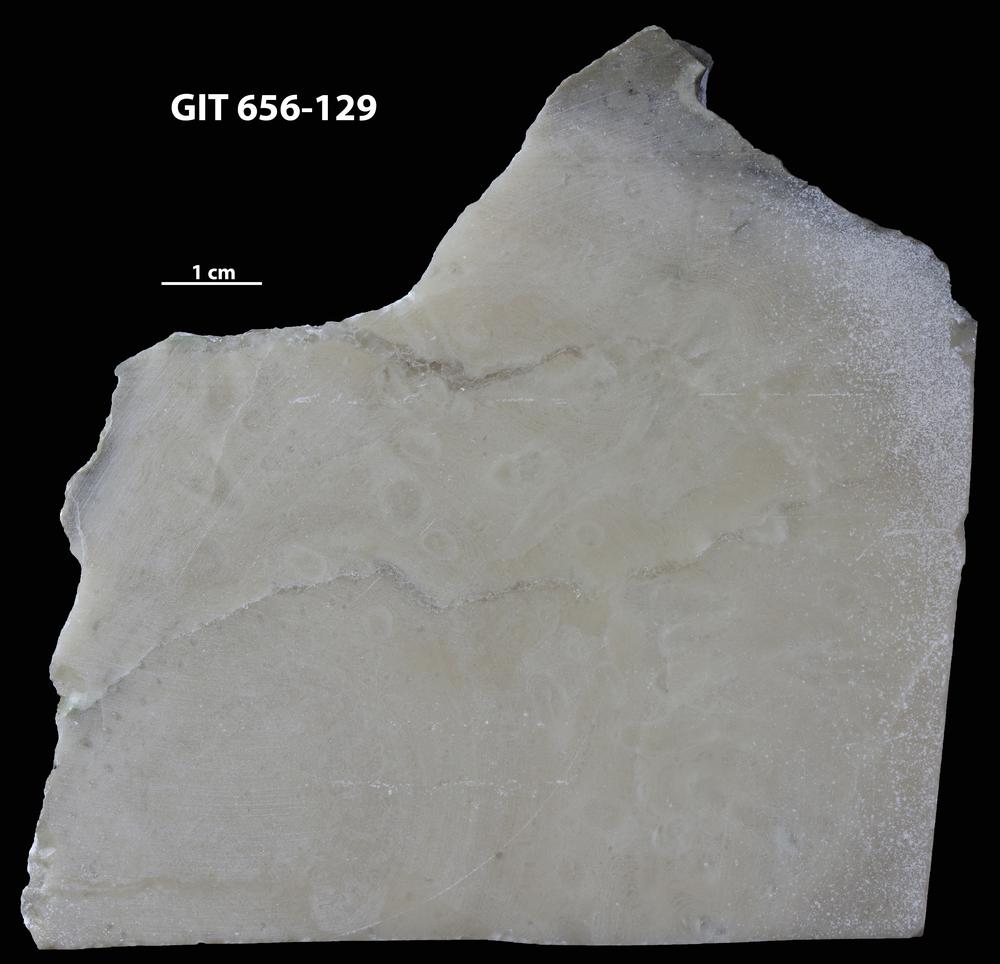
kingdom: Animalia
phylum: Porifera
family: Gerronostromatidae
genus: Petridiostroma
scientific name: Petridiostroma
